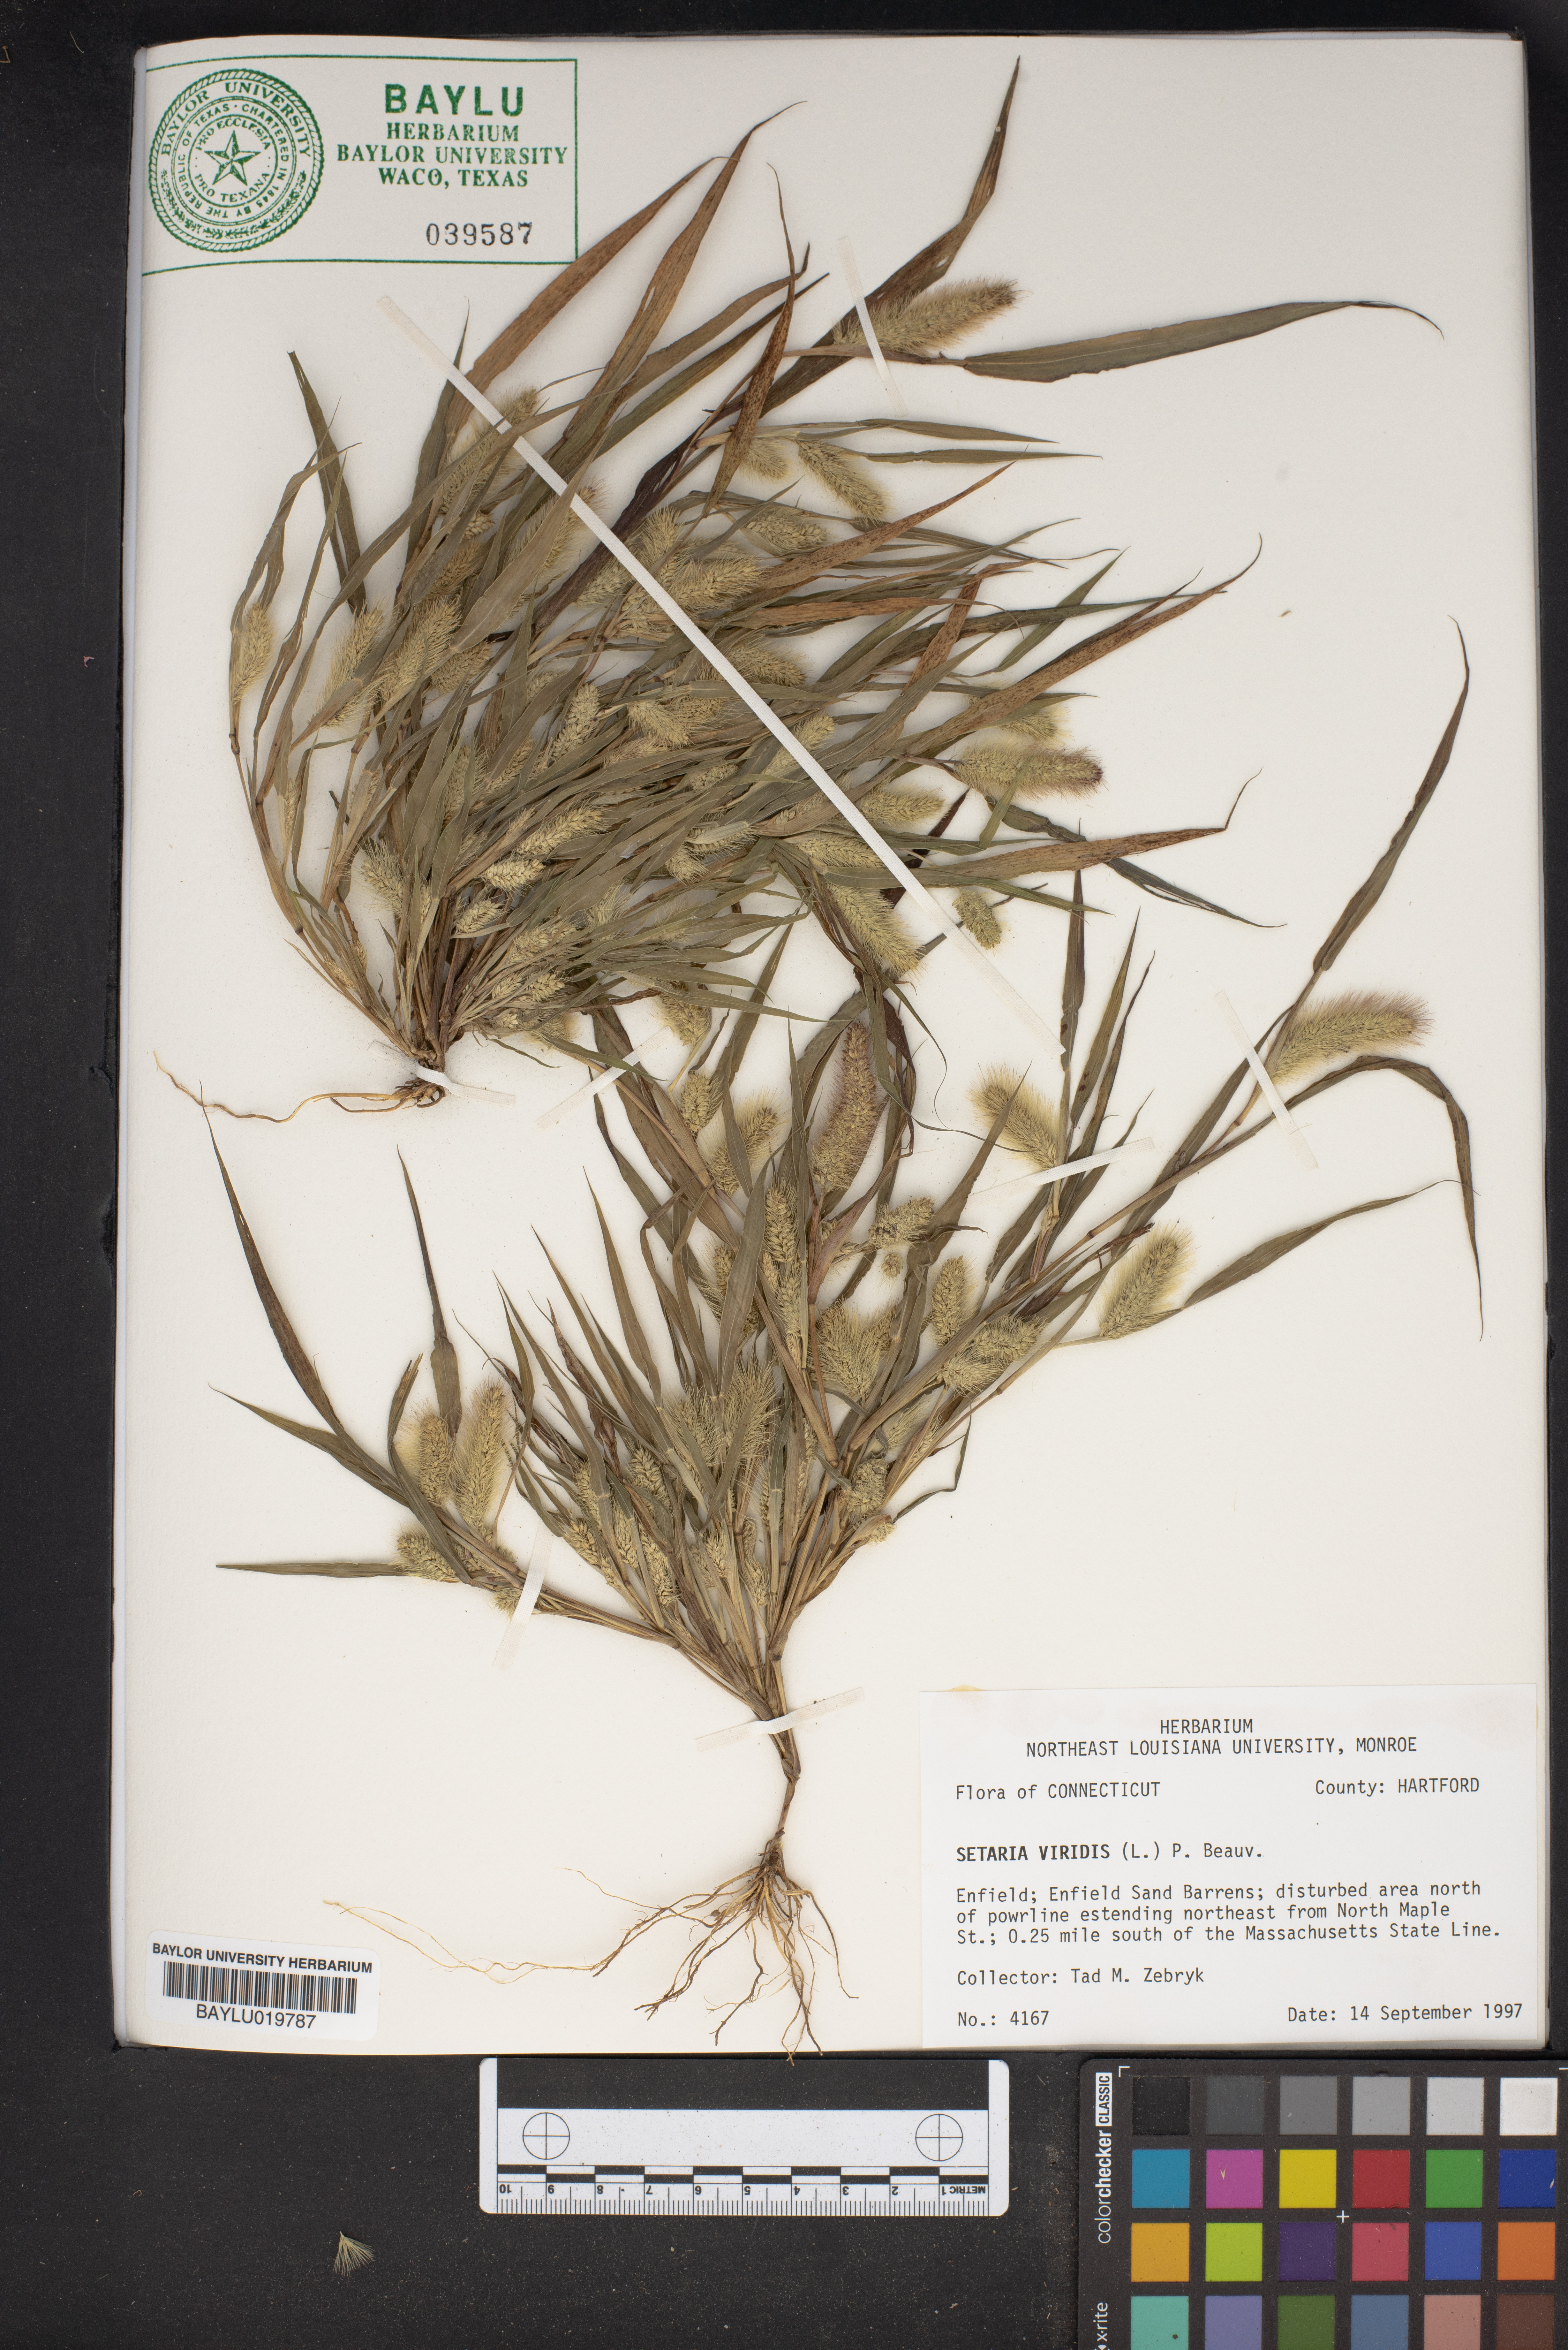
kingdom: Plantae
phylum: Tracheophyta
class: Liliopsida
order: Poales
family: Poaceae
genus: Setaria
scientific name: Setaria viridis
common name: Green bristlegrass
